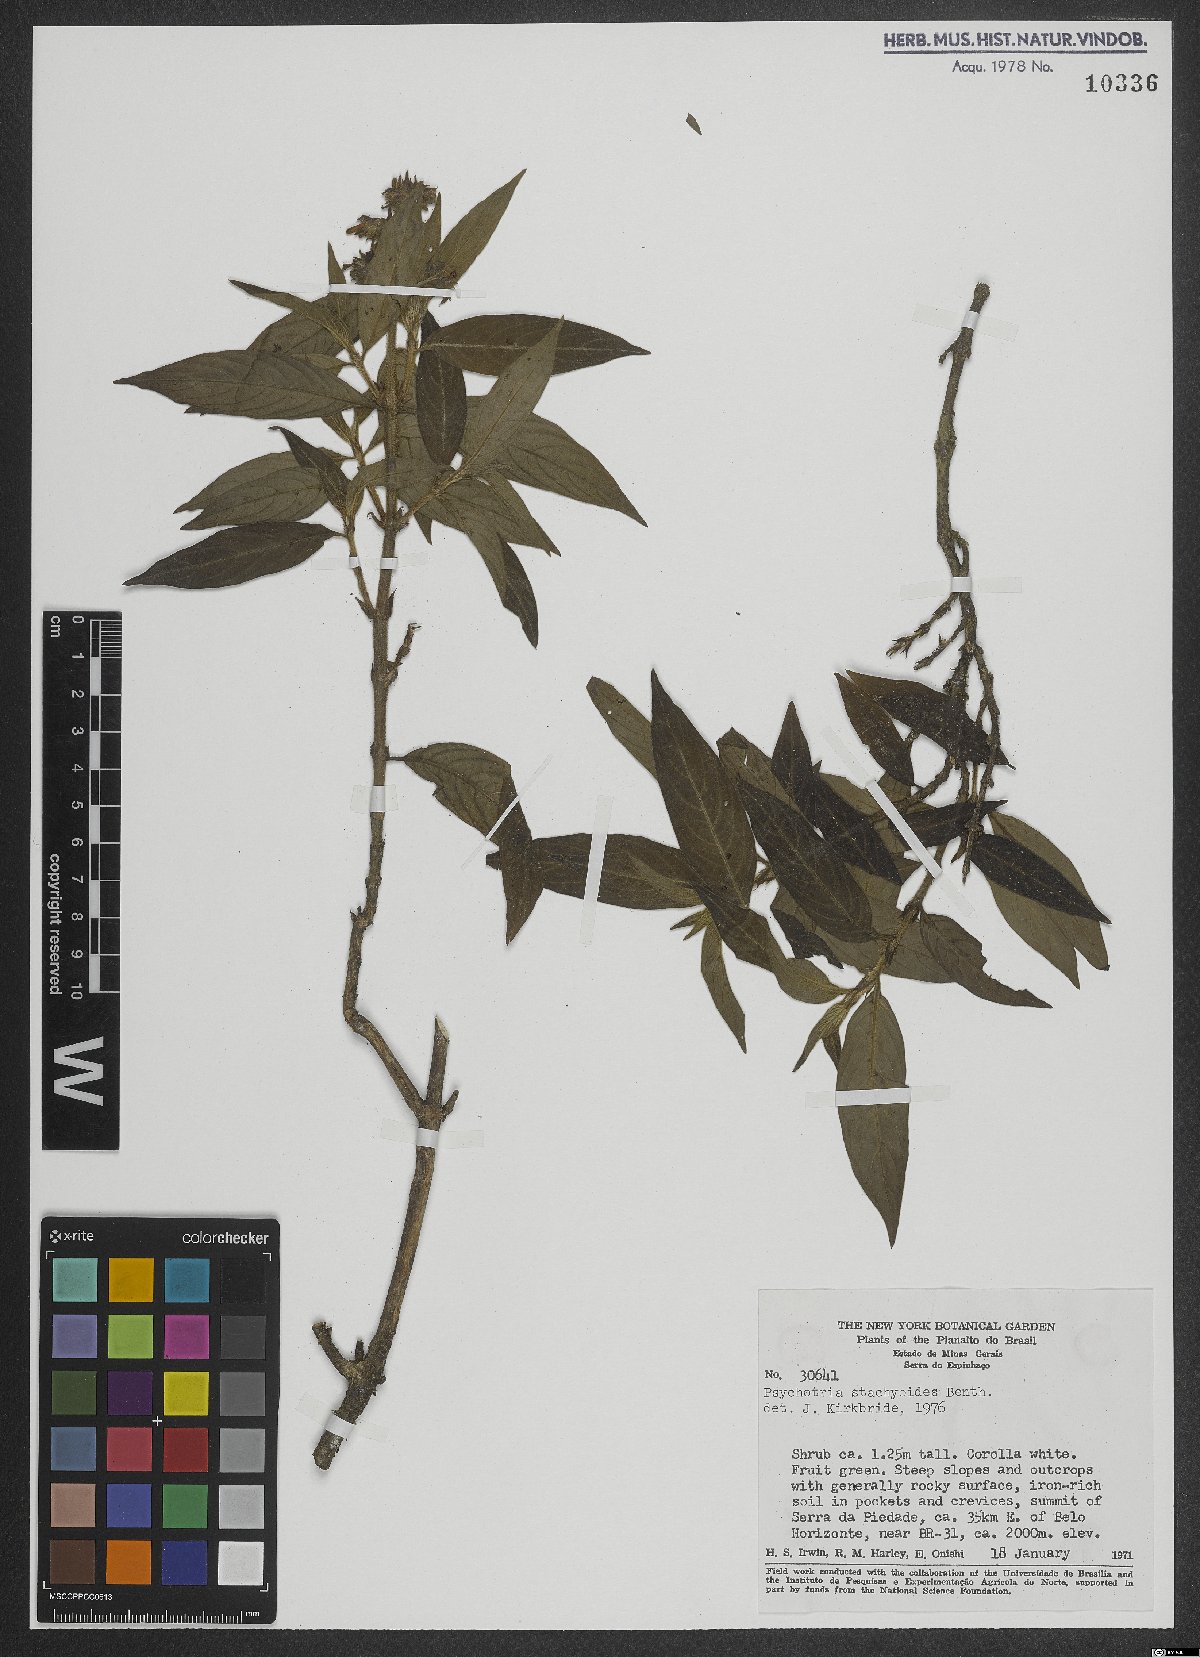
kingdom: Plantae
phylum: Tracheophyta
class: Magnoliopsida
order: Gentianales
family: Rubiaceae
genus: Psychotria
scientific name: Psychotria stachyoides
